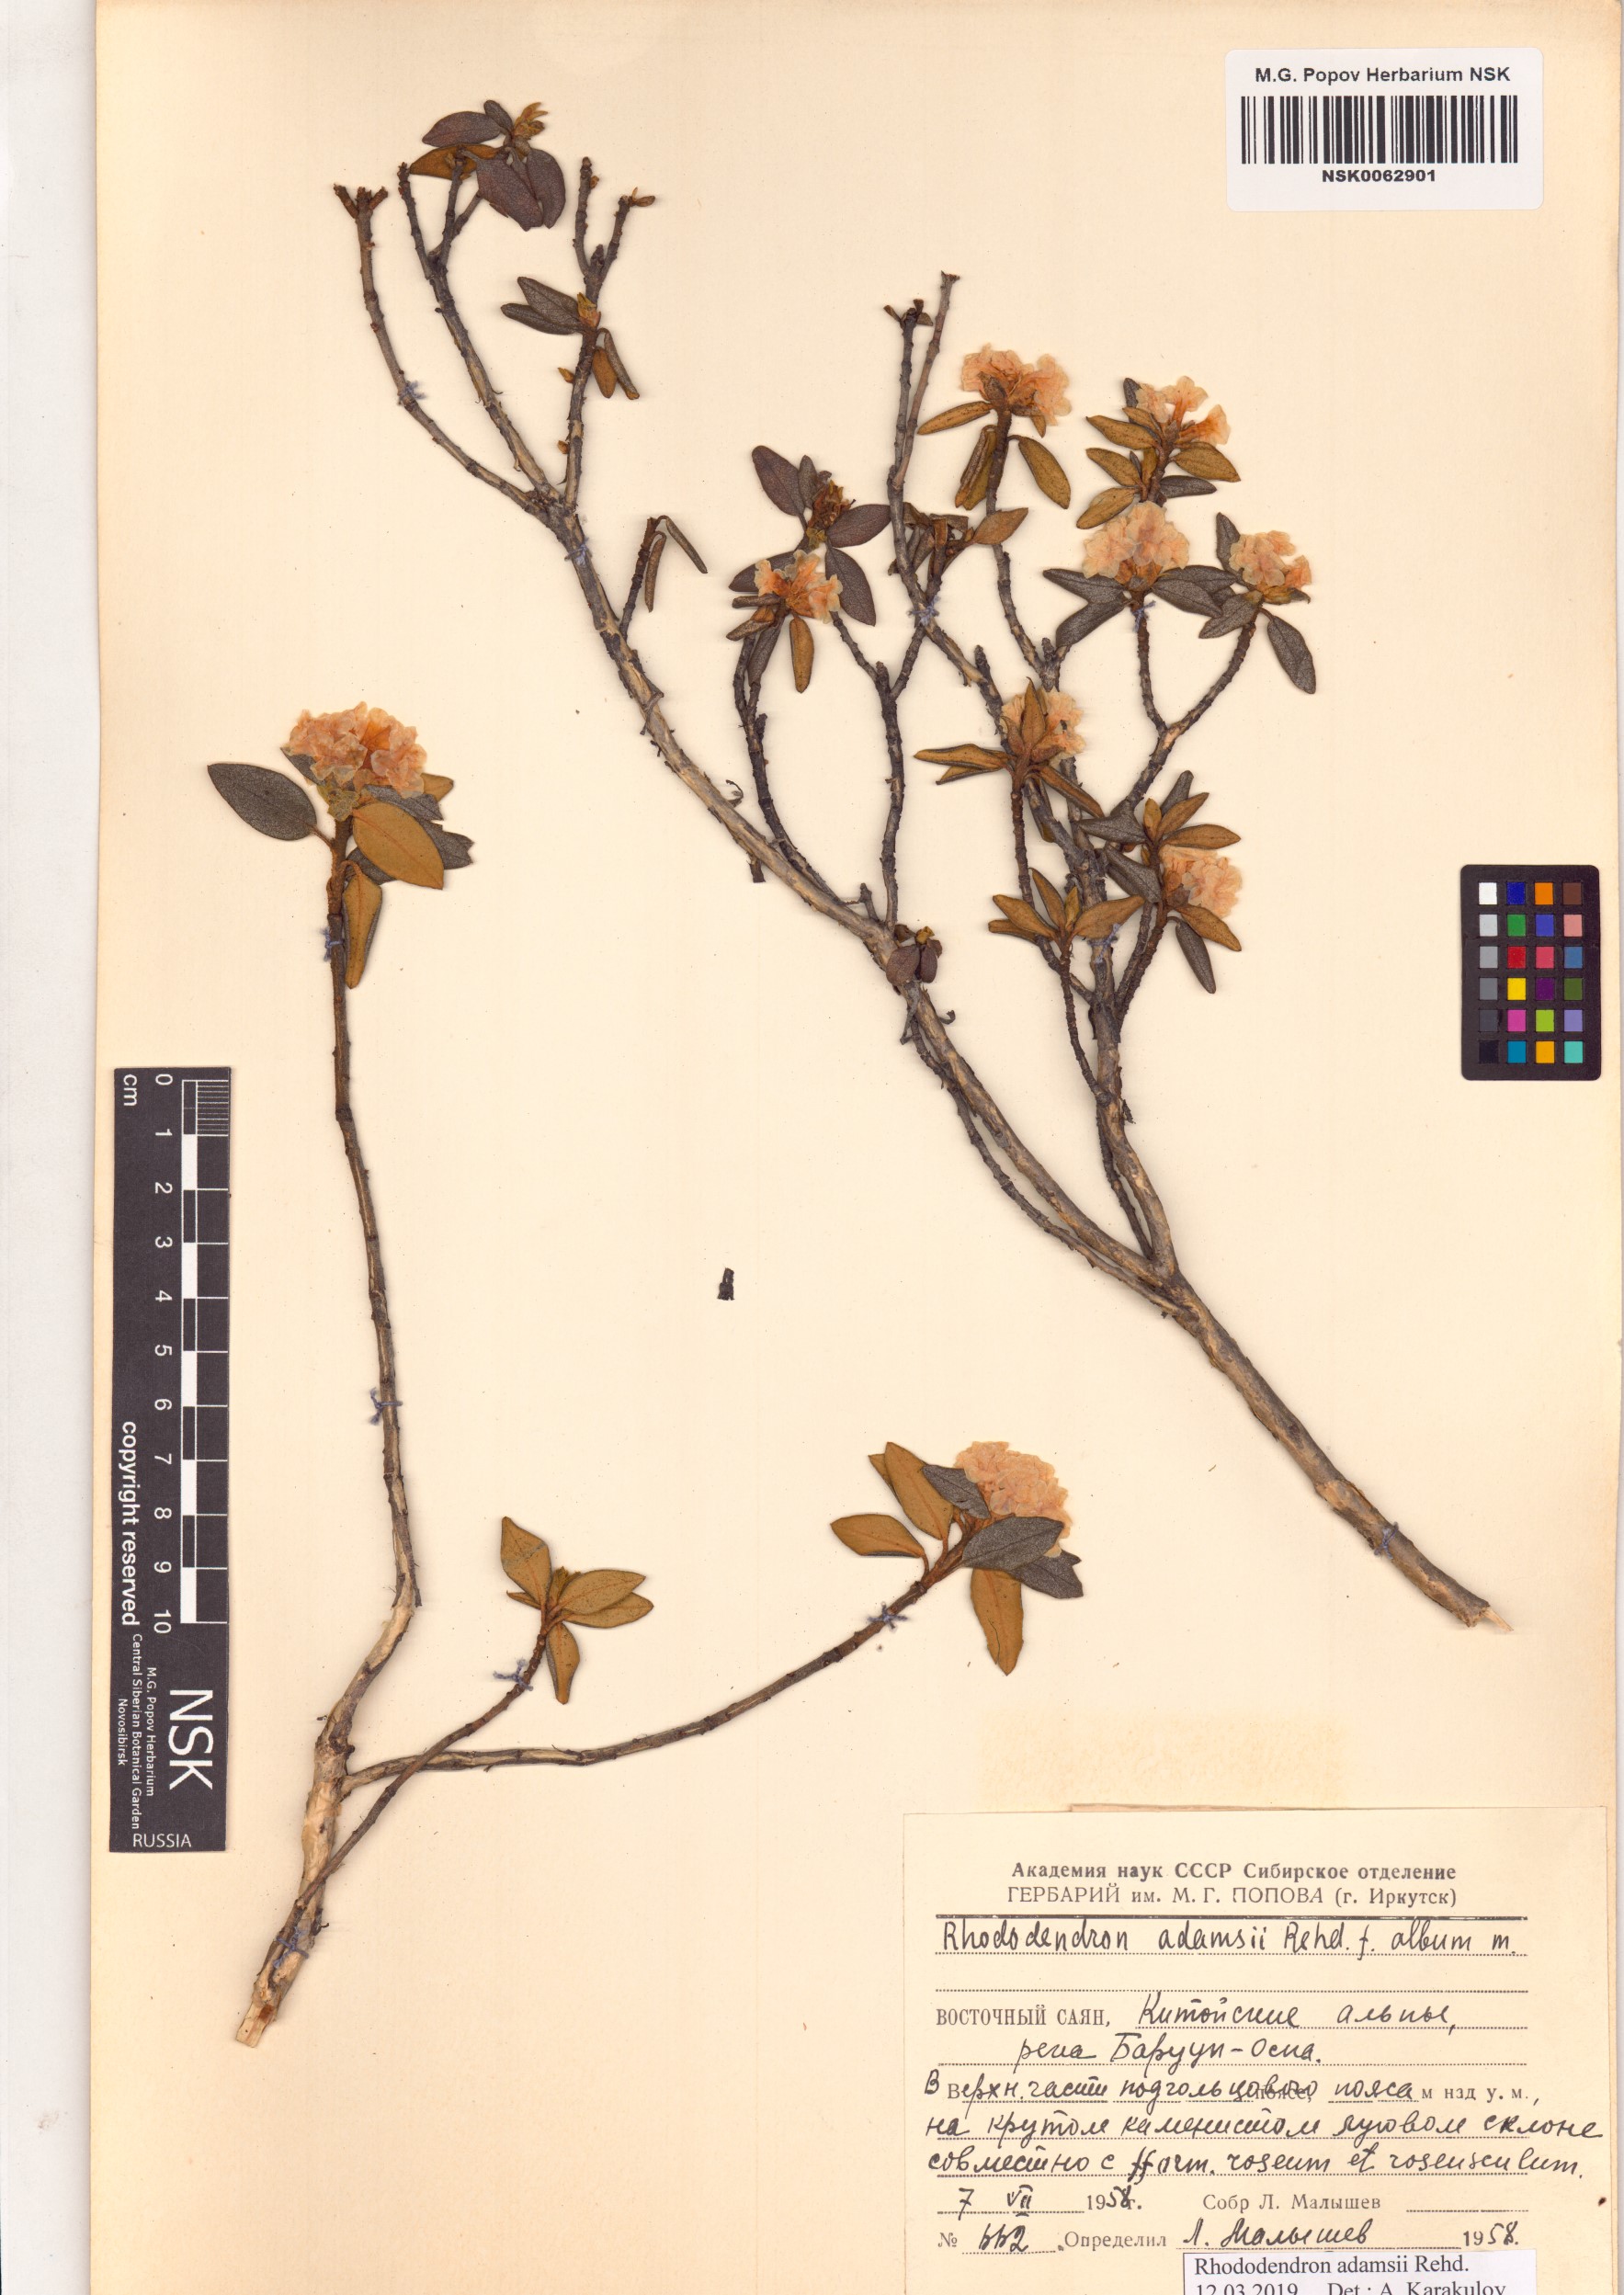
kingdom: Plantae
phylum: Tracheophyta
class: Magnoliopsida
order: Ericales
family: Ericaceae
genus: Rhododendron
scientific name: Rhododendron adamsii
